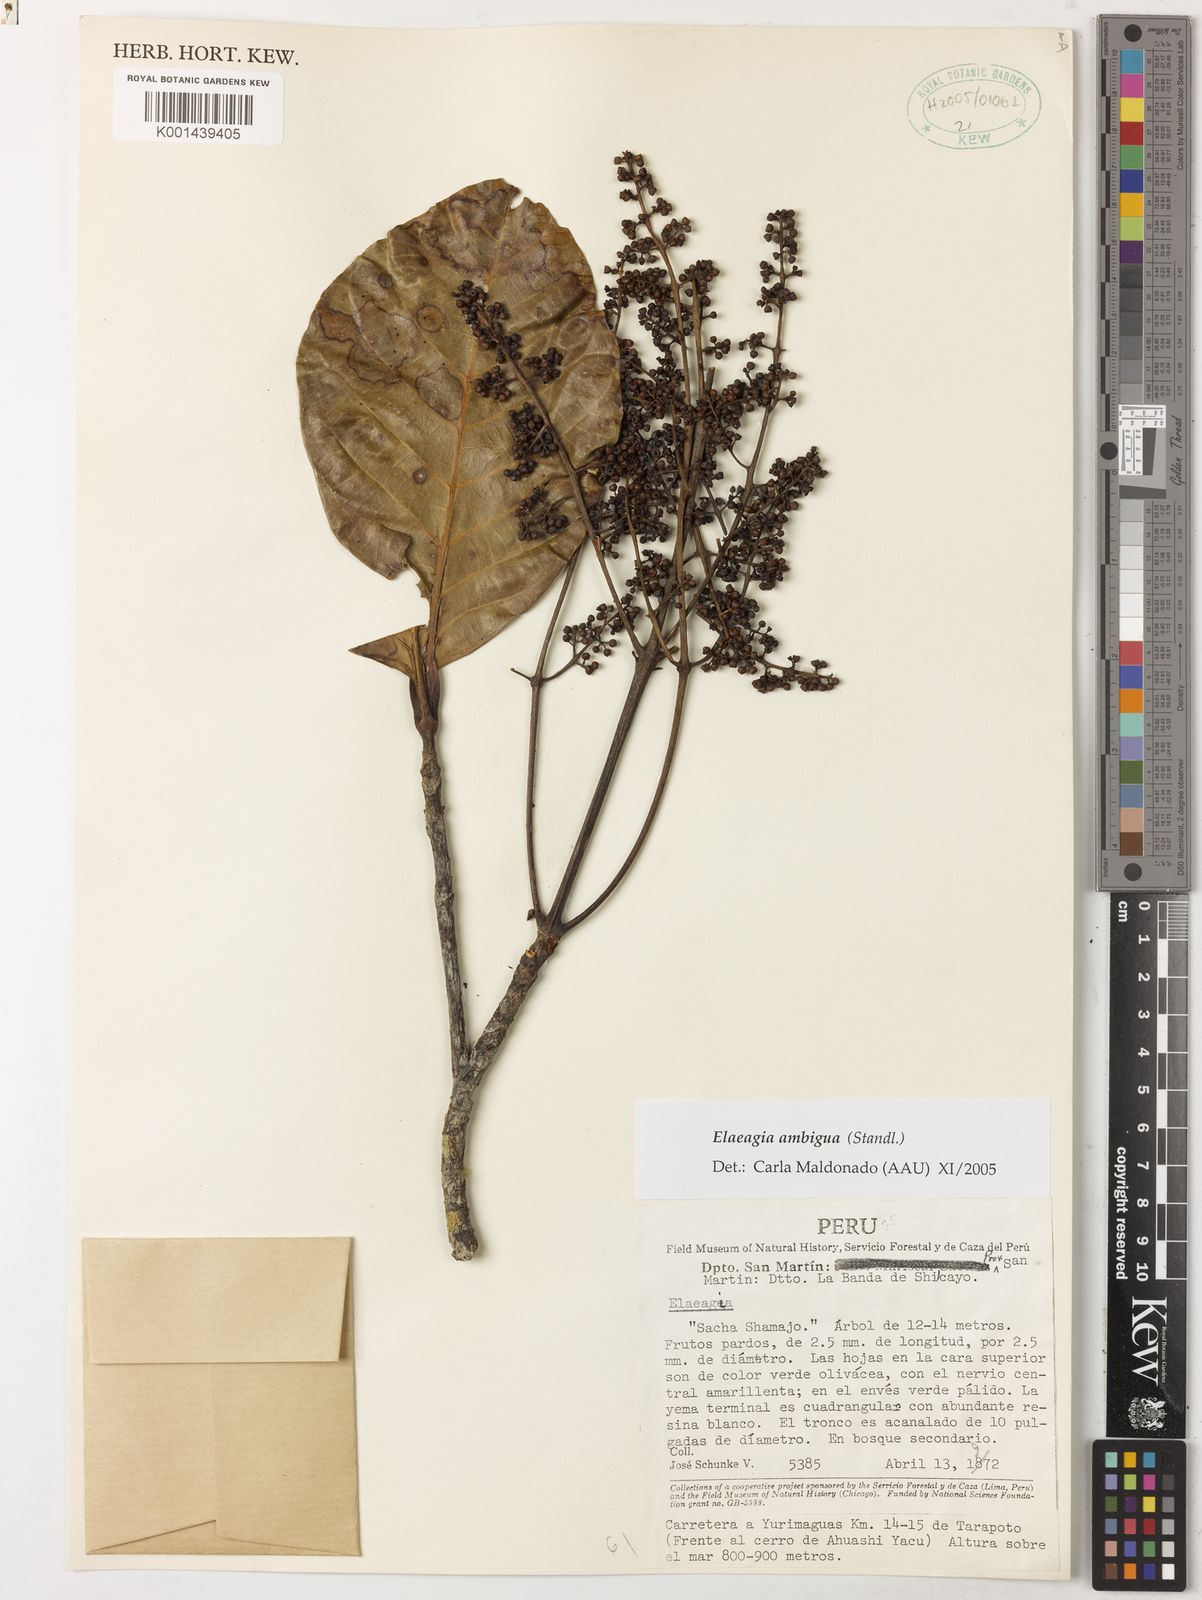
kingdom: Plantae
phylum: Tracheophyta
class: Magnoliopsida
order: Gentianales
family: Rubiaceae
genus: Elaeagia
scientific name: Elaeagia
